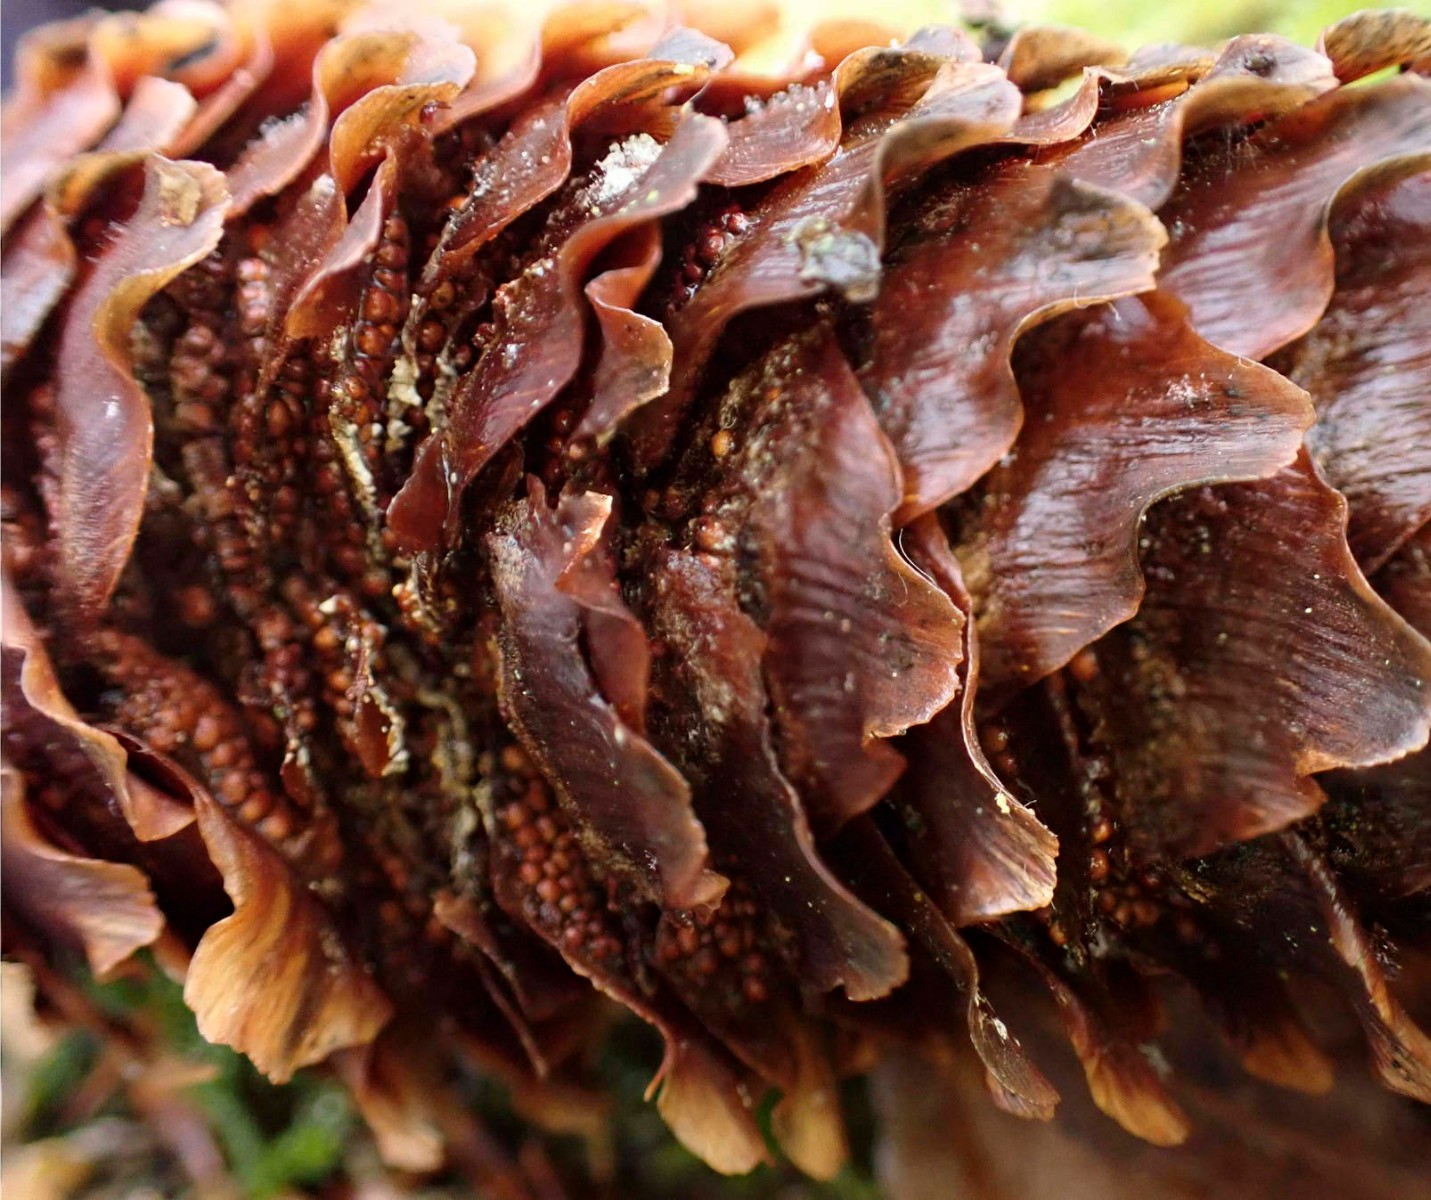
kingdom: Fungi
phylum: Basidiomycota
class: Pucciniomycetes
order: Pucciniales
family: Pucciniastraceae
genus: Thekopsora
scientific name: Thekopsora areolata
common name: grankogle-nålerust
